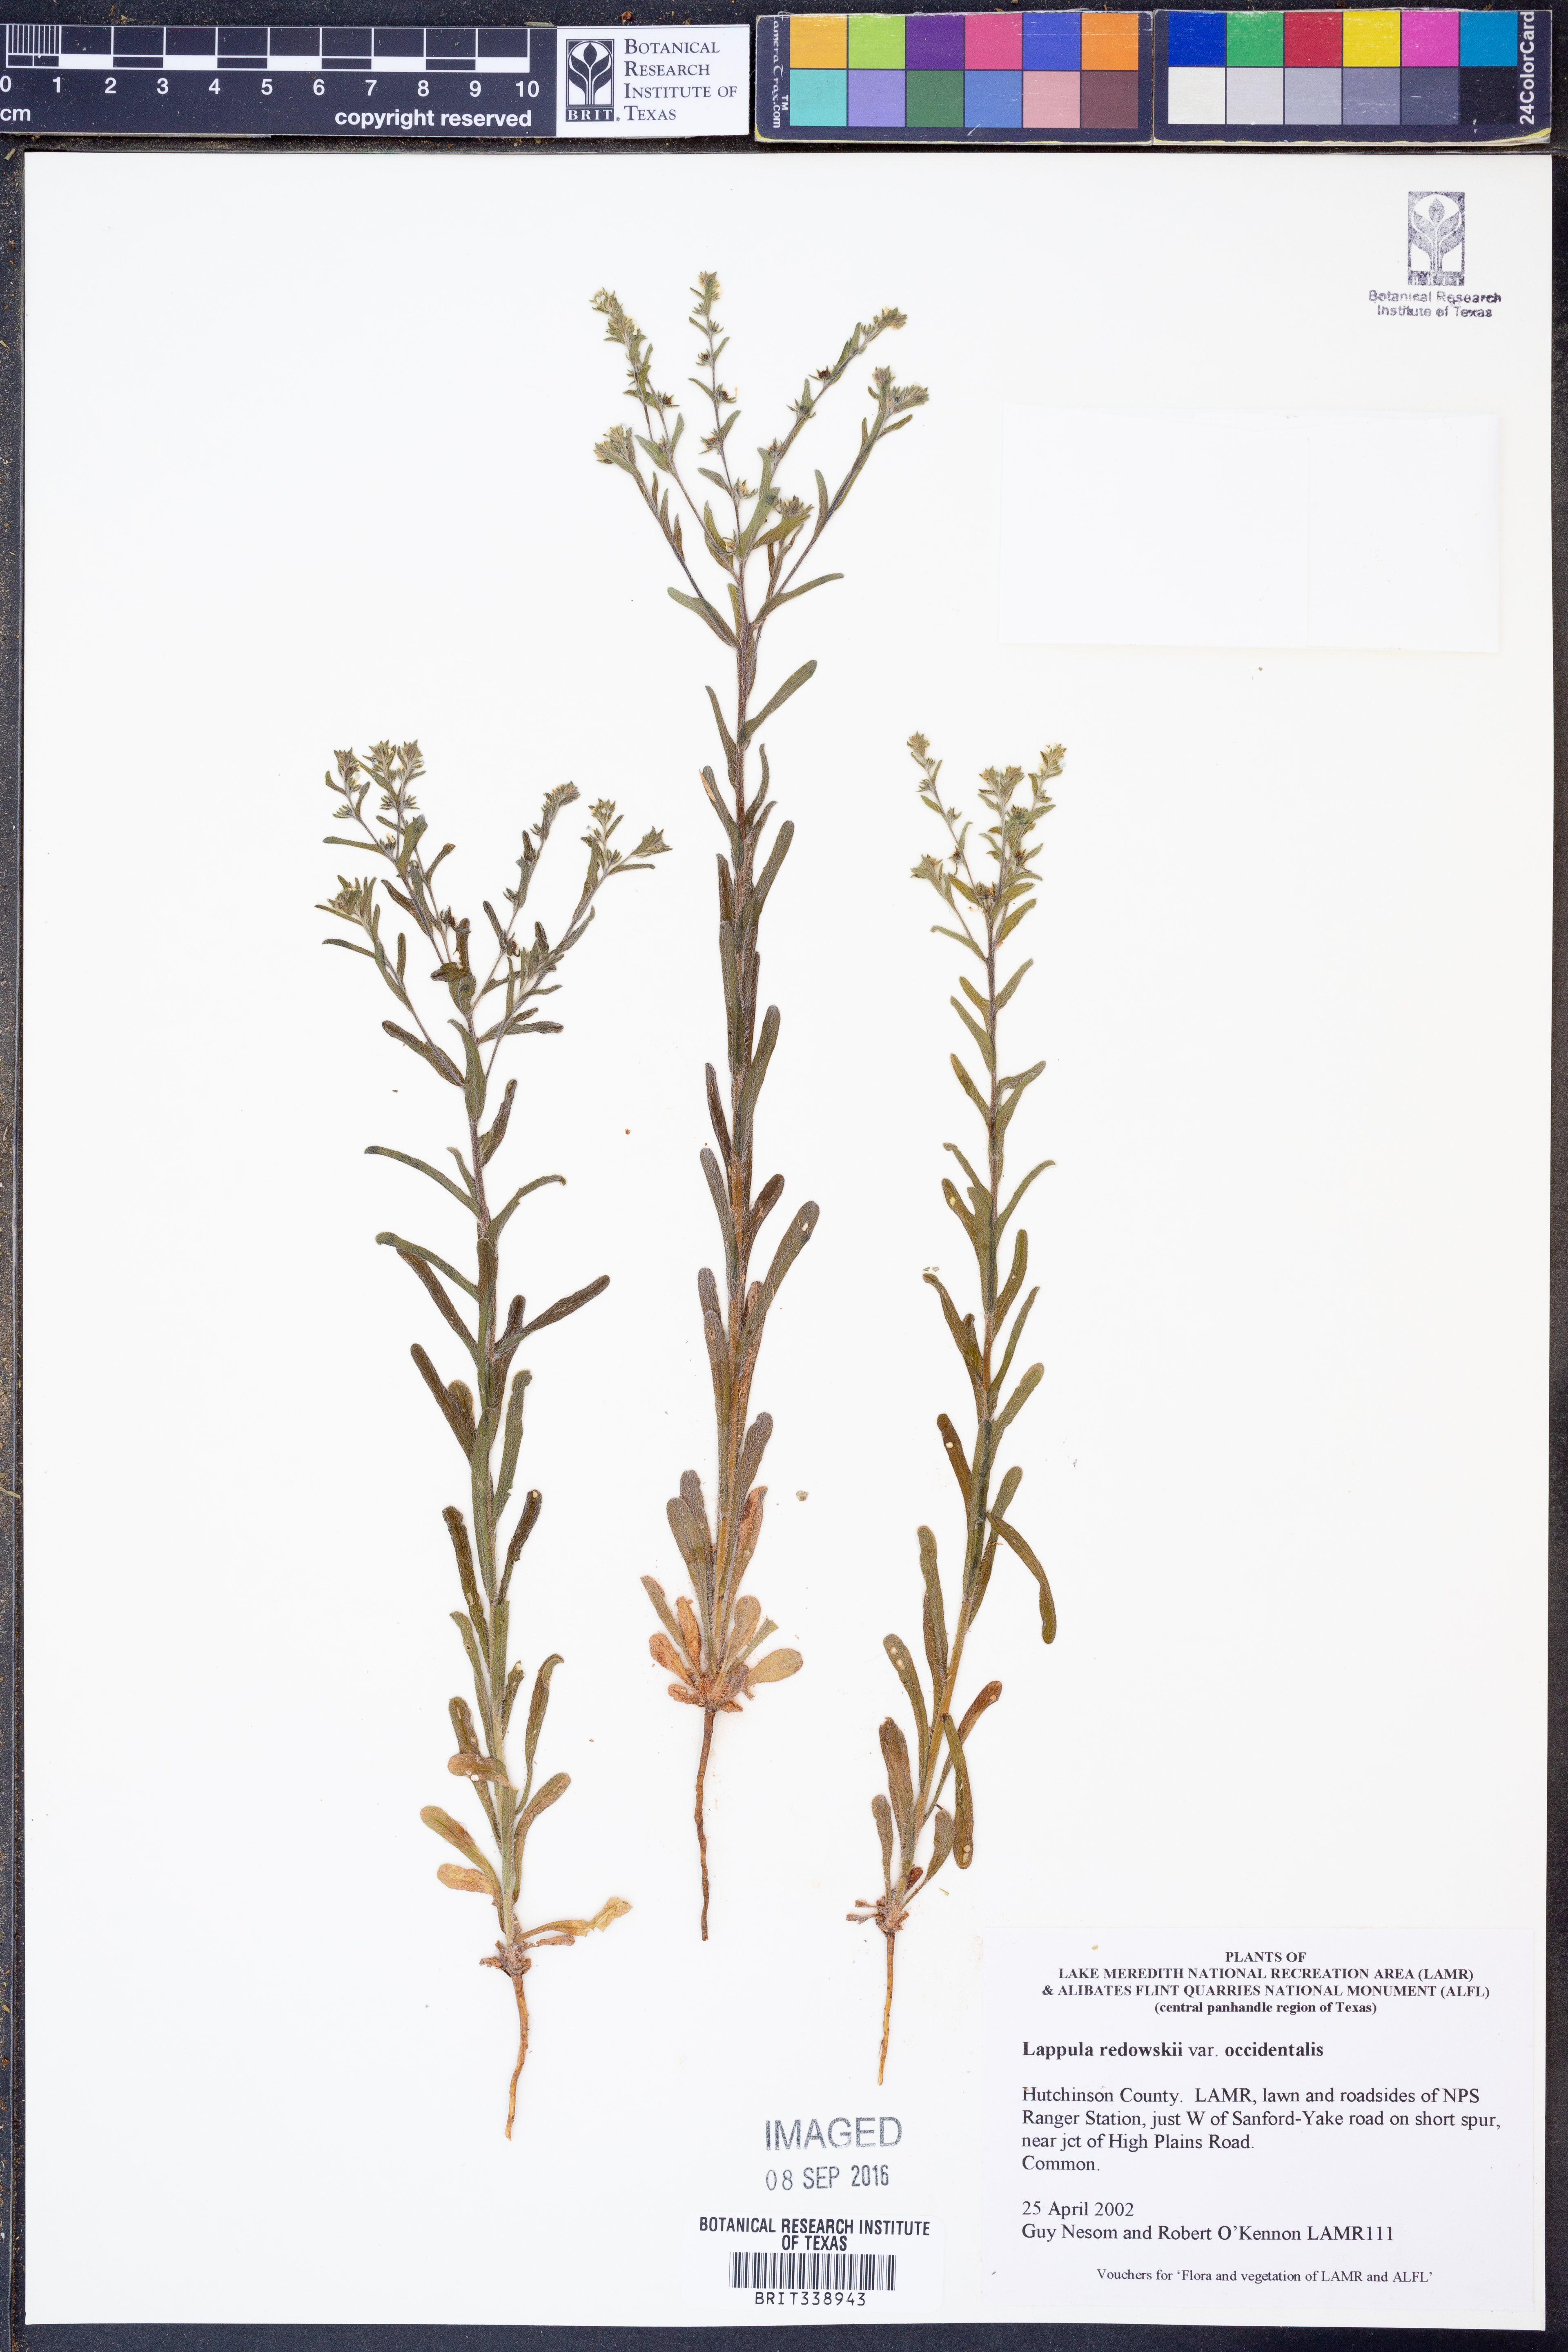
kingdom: Plantae
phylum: Tracheophyta
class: Magnoliopsida
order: Boraginales
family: Boraginaceae
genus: Lappula
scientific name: Lappula occidentalis
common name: Western stickseed
